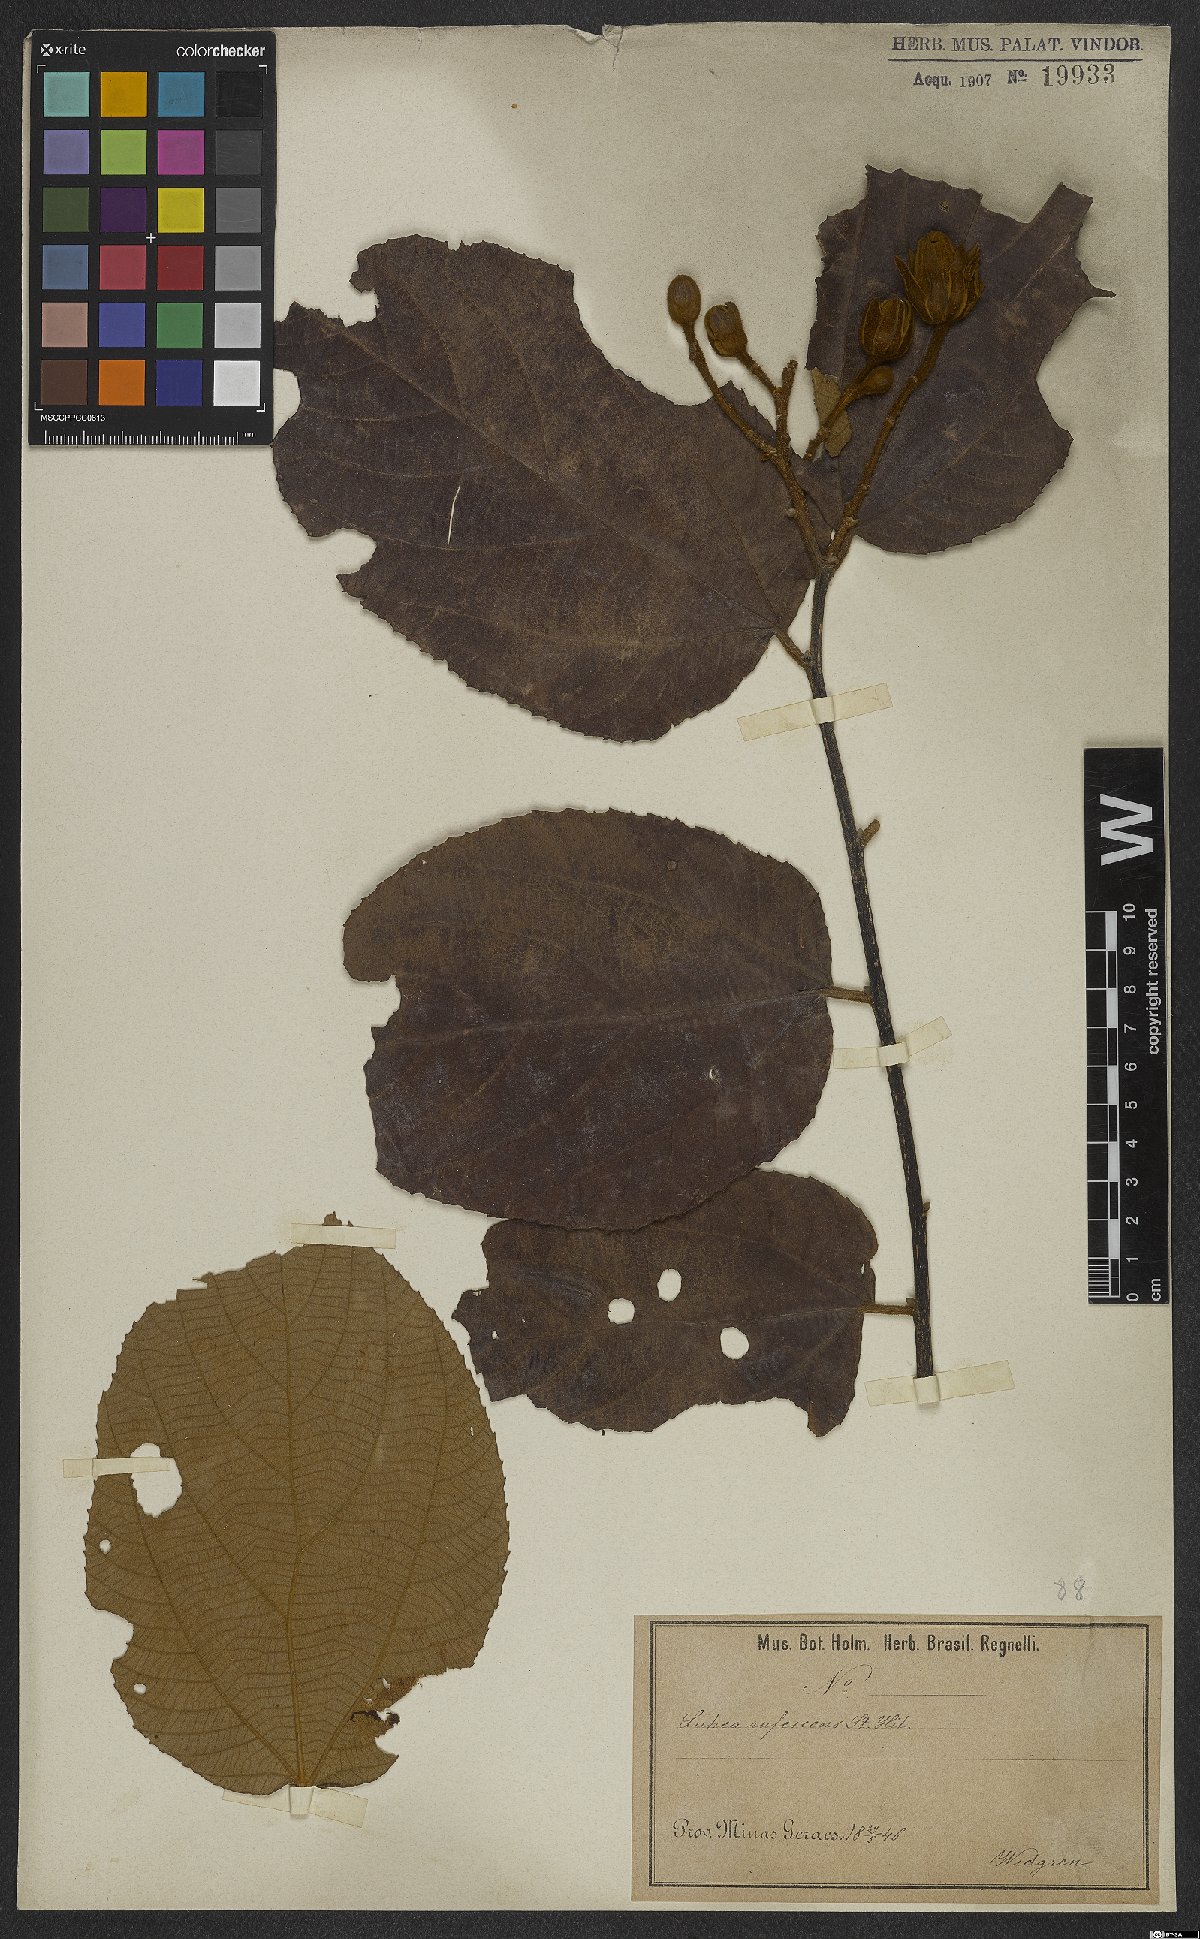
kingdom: Plantae
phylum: Tracheophyta
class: Magnoliopsida
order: Malvales
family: Malvaceae
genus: Luehea
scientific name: Luehea rufescens
